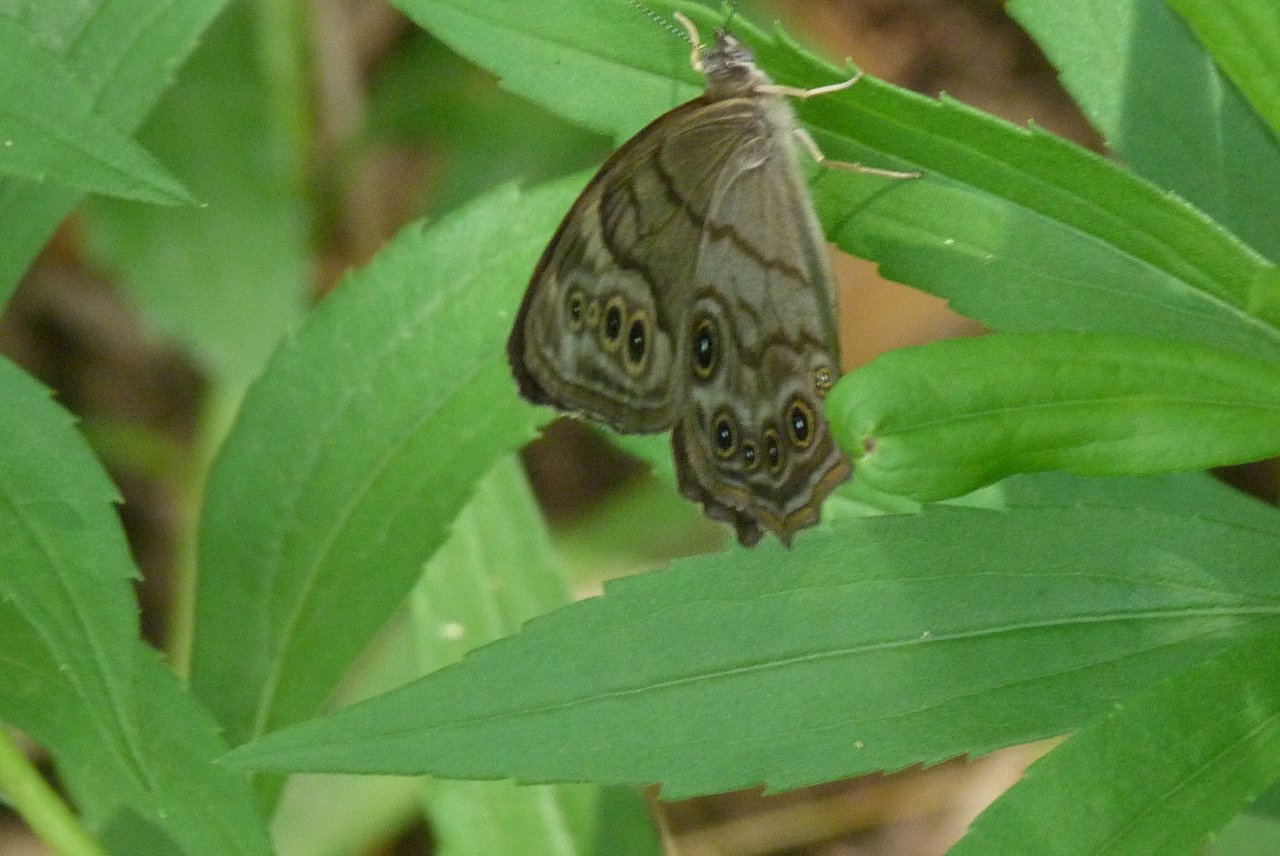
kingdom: Animalia
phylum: Arthropoda
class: Insecta
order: Lepidoptera
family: Nymphalidae
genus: Lethe
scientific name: Lethe anthedon
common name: Northern Pearly-Eye
